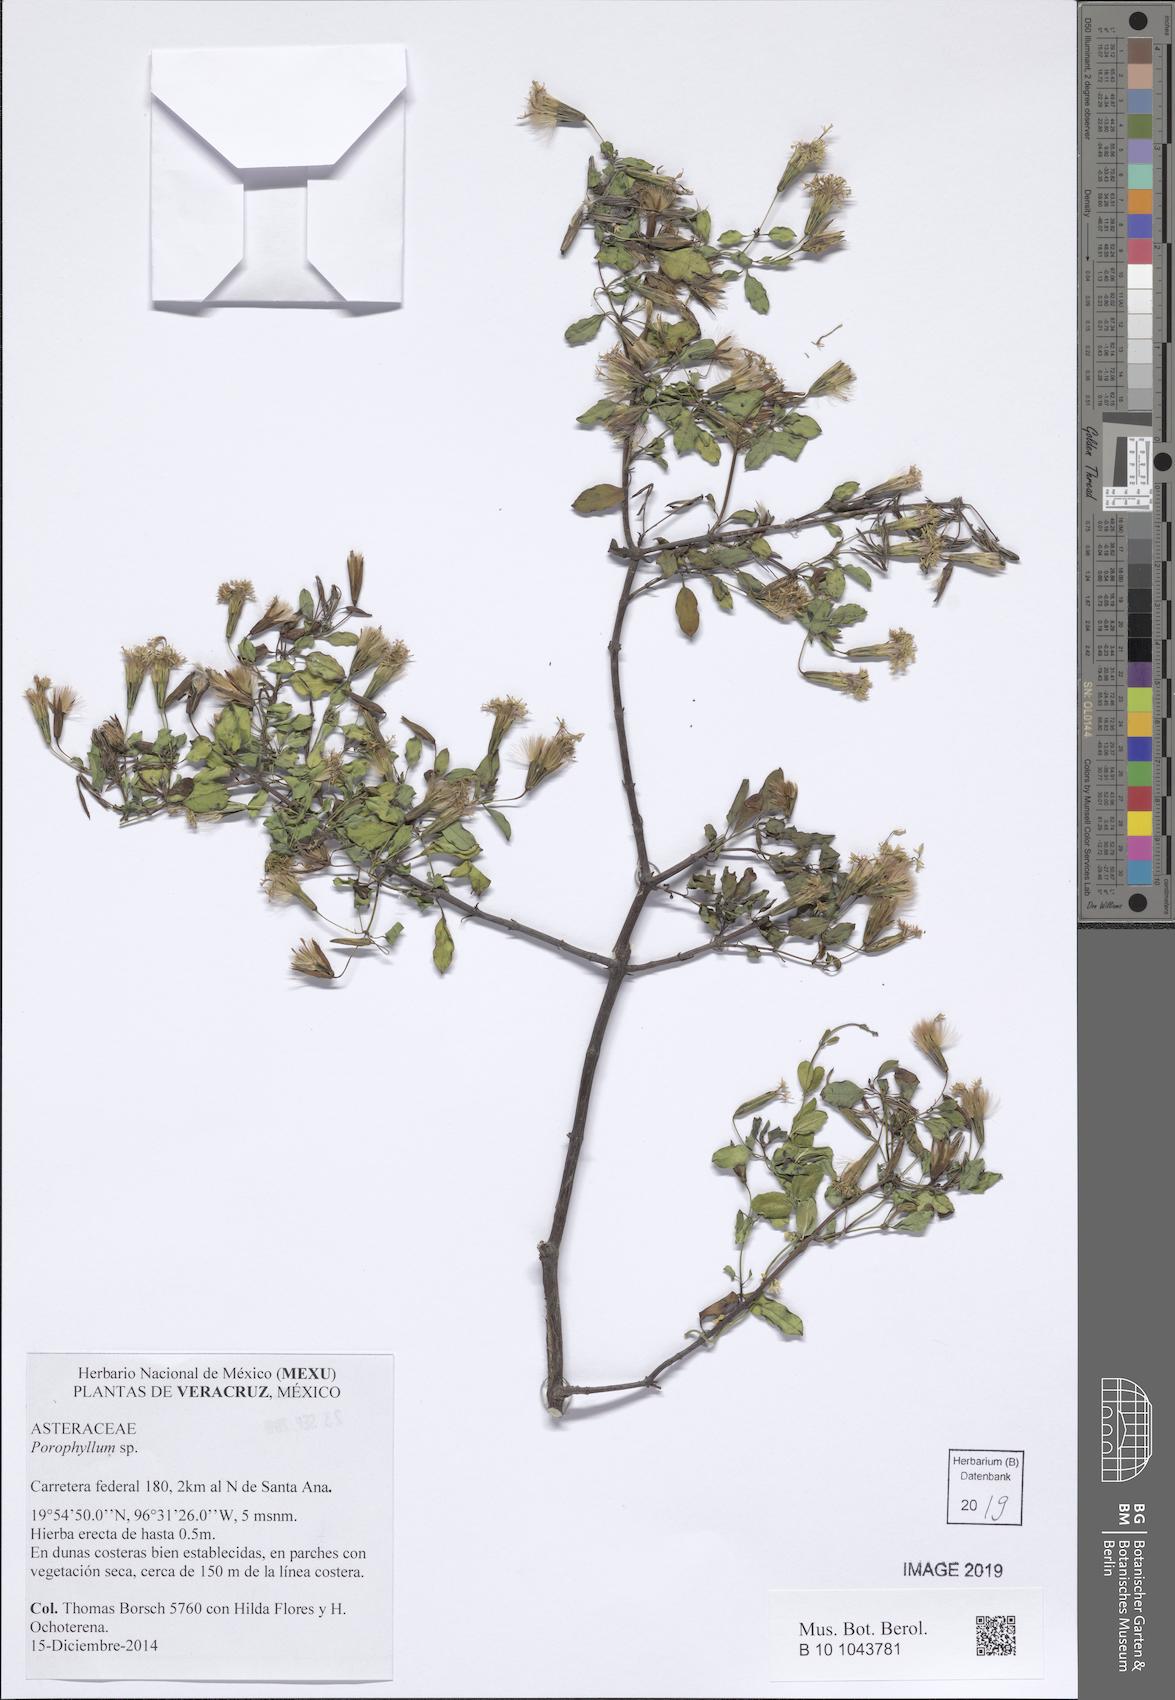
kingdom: Plantae
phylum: Tracheophyta
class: Magnoliopsida
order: Asterales
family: Asteraceae
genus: Porophyllum
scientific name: Porophyllum
